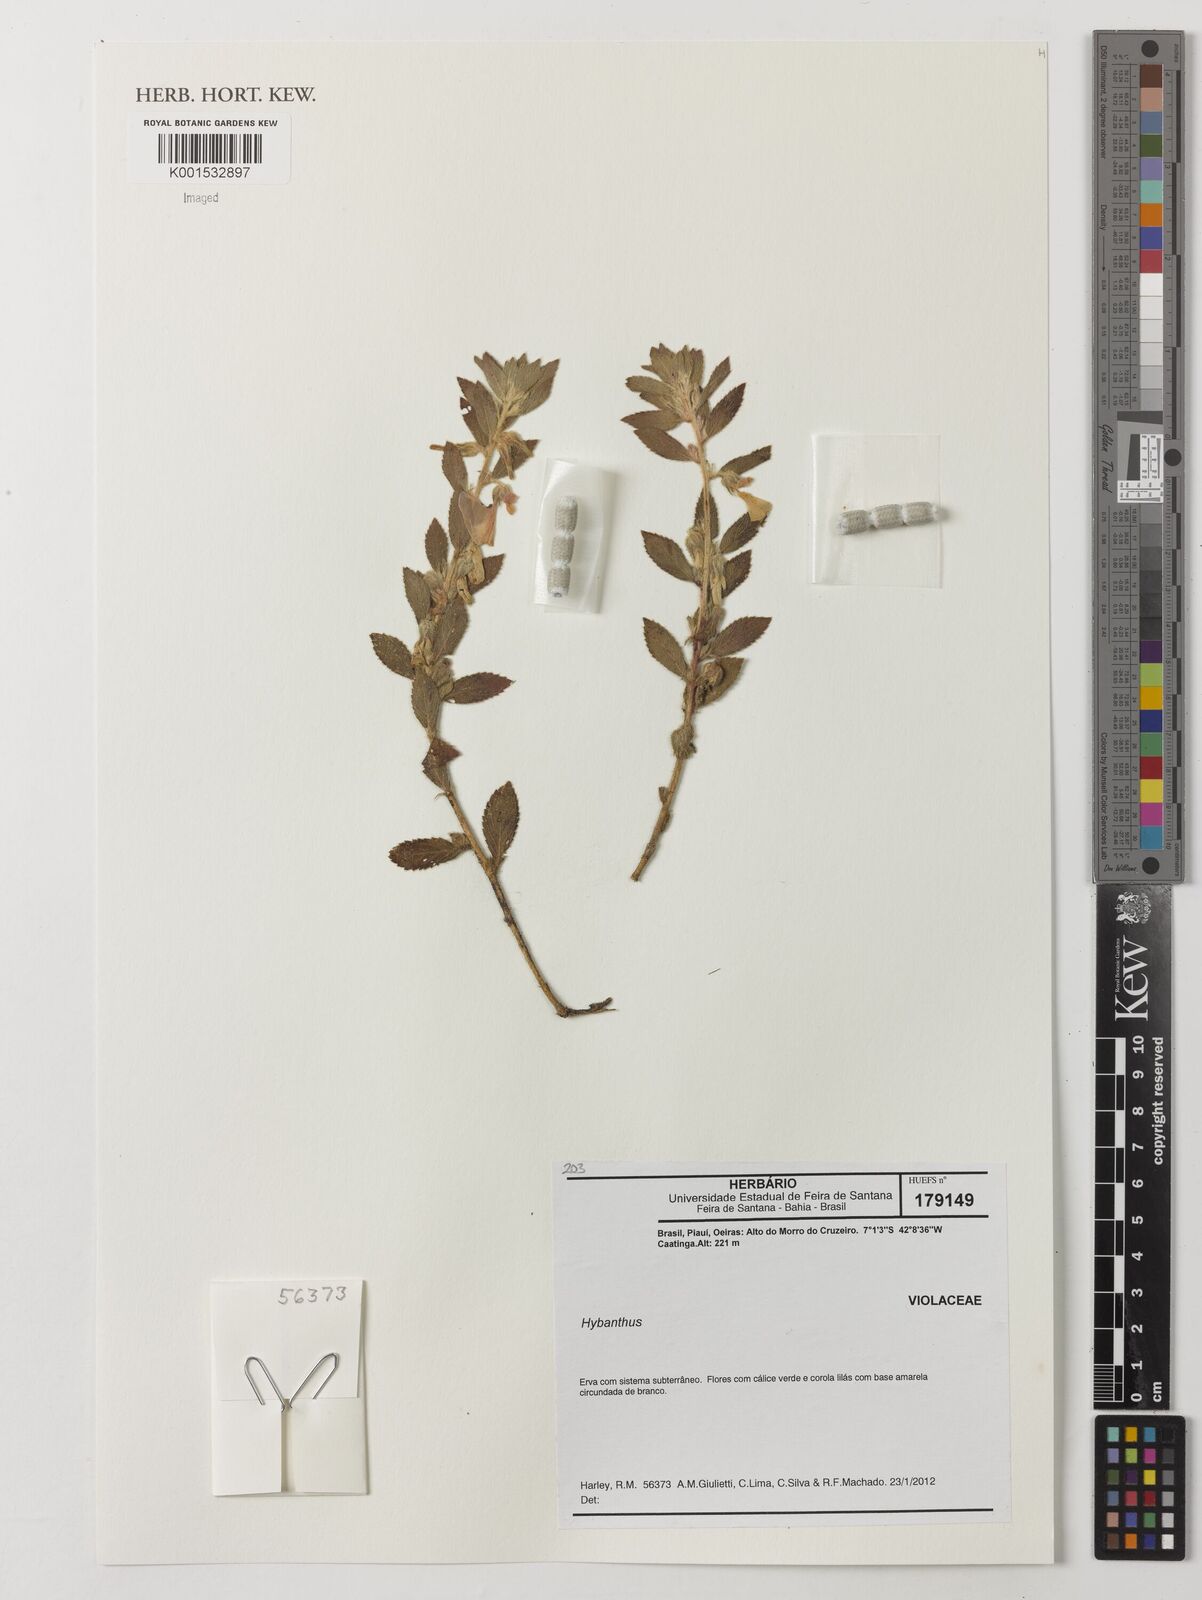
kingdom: Plantae
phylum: Tracheophyta
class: Magnoliopsida
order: Malpighiales
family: Violaceae
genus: Hybanthus
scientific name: Hybanthus
